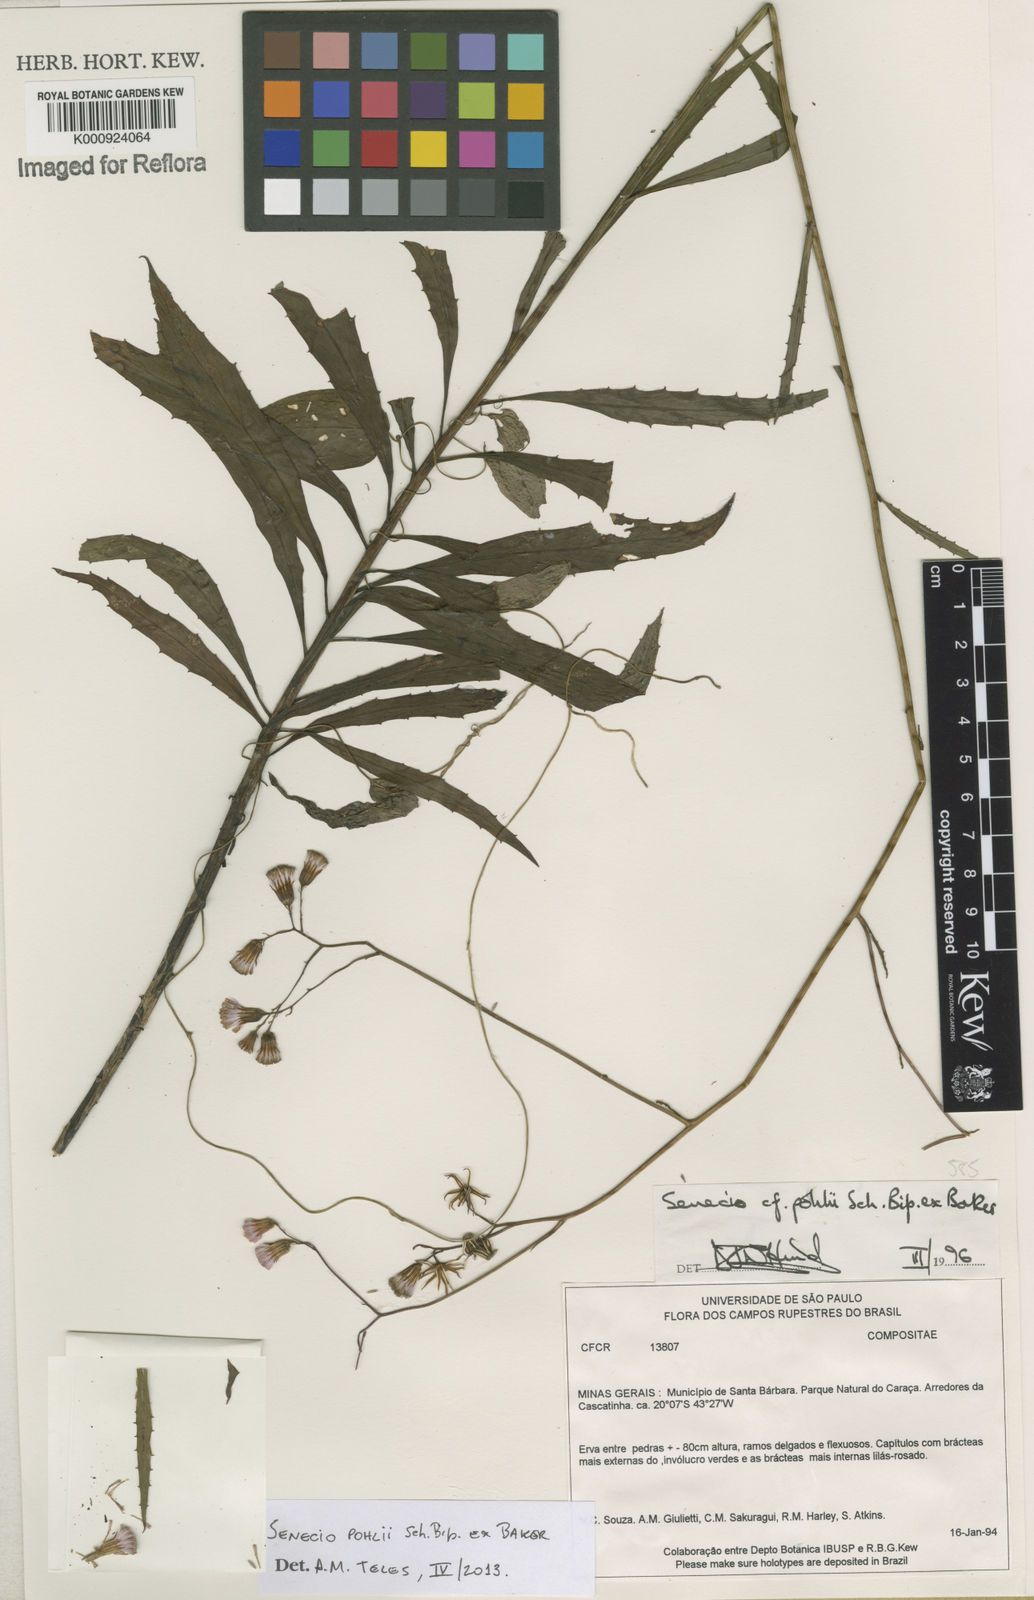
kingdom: Plantae
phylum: Tracheophyta
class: Magnoliopsida
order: Asterales
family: Asteraceae
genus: Pseudogynoxys
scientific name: Pseudogynoxys pohlii
